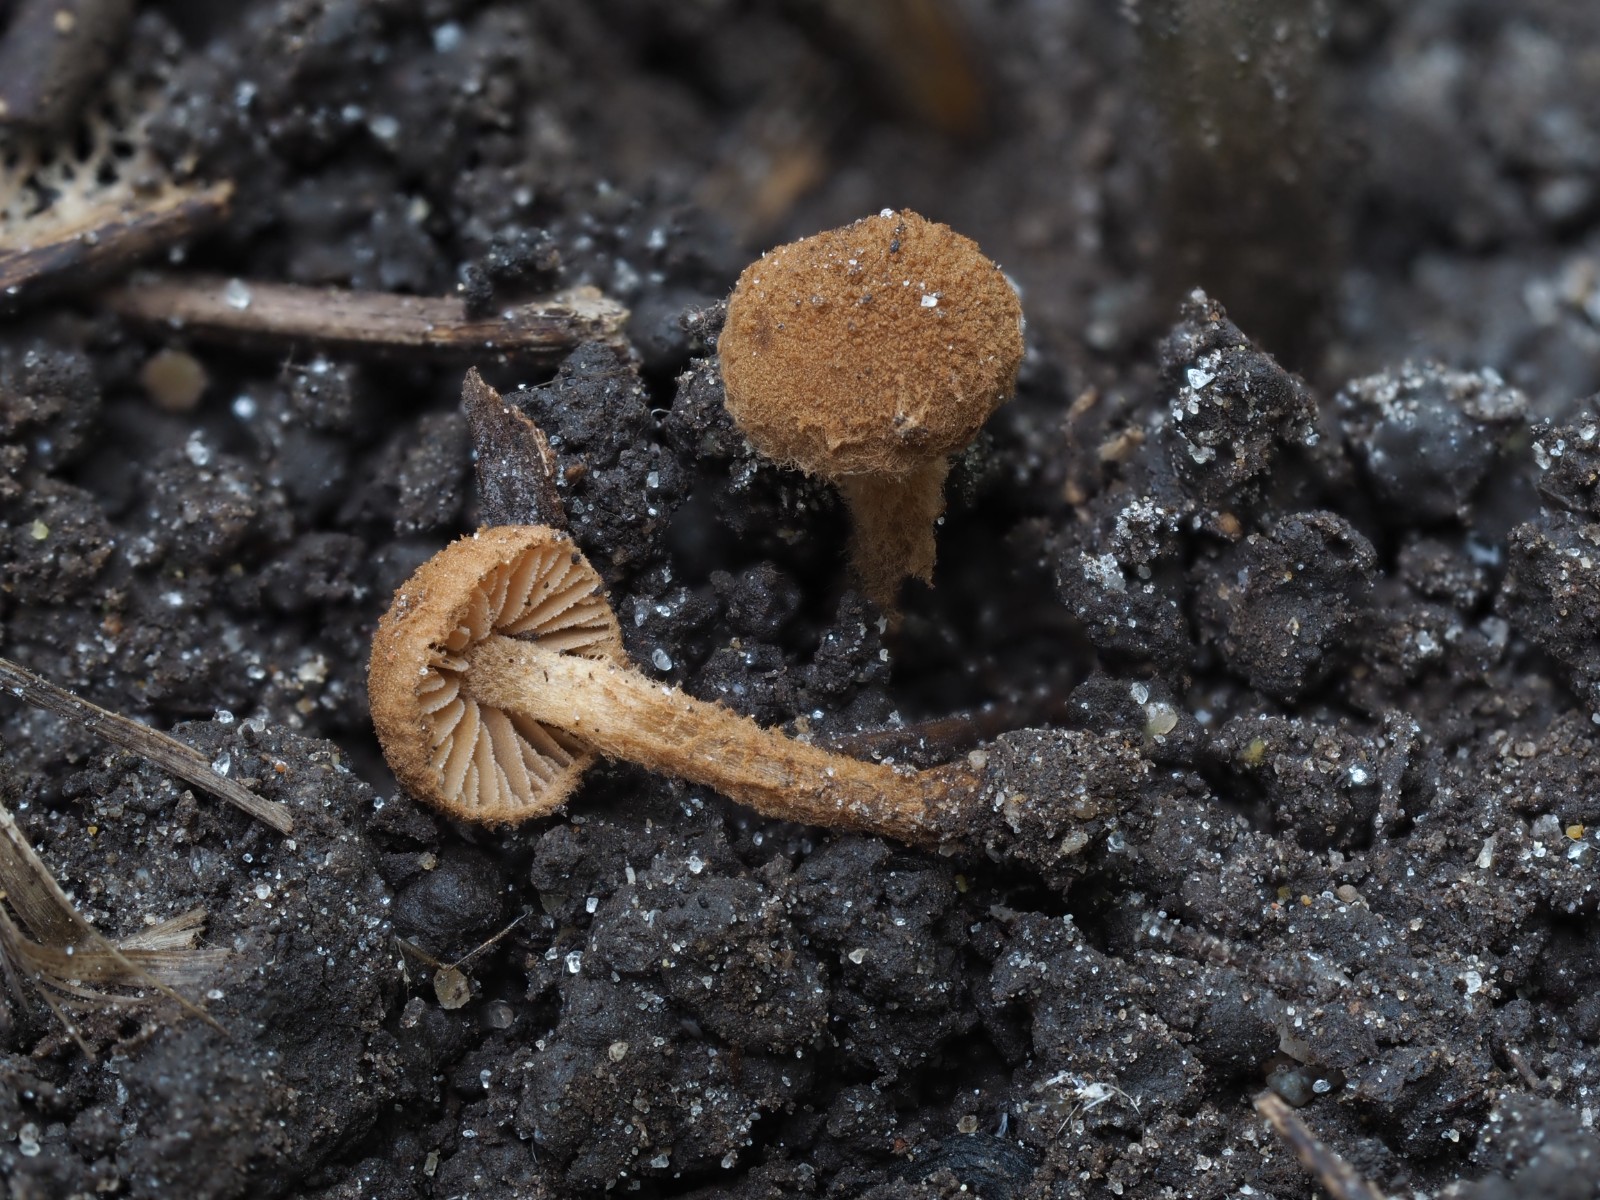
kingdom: Fungi
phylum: Basidiomycota
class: Agaricomycetes
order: Agaricales
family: Tubariaceae
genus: Flammulaster
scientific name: Flammulaster granulosus
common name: gulbrun grynskælhat
